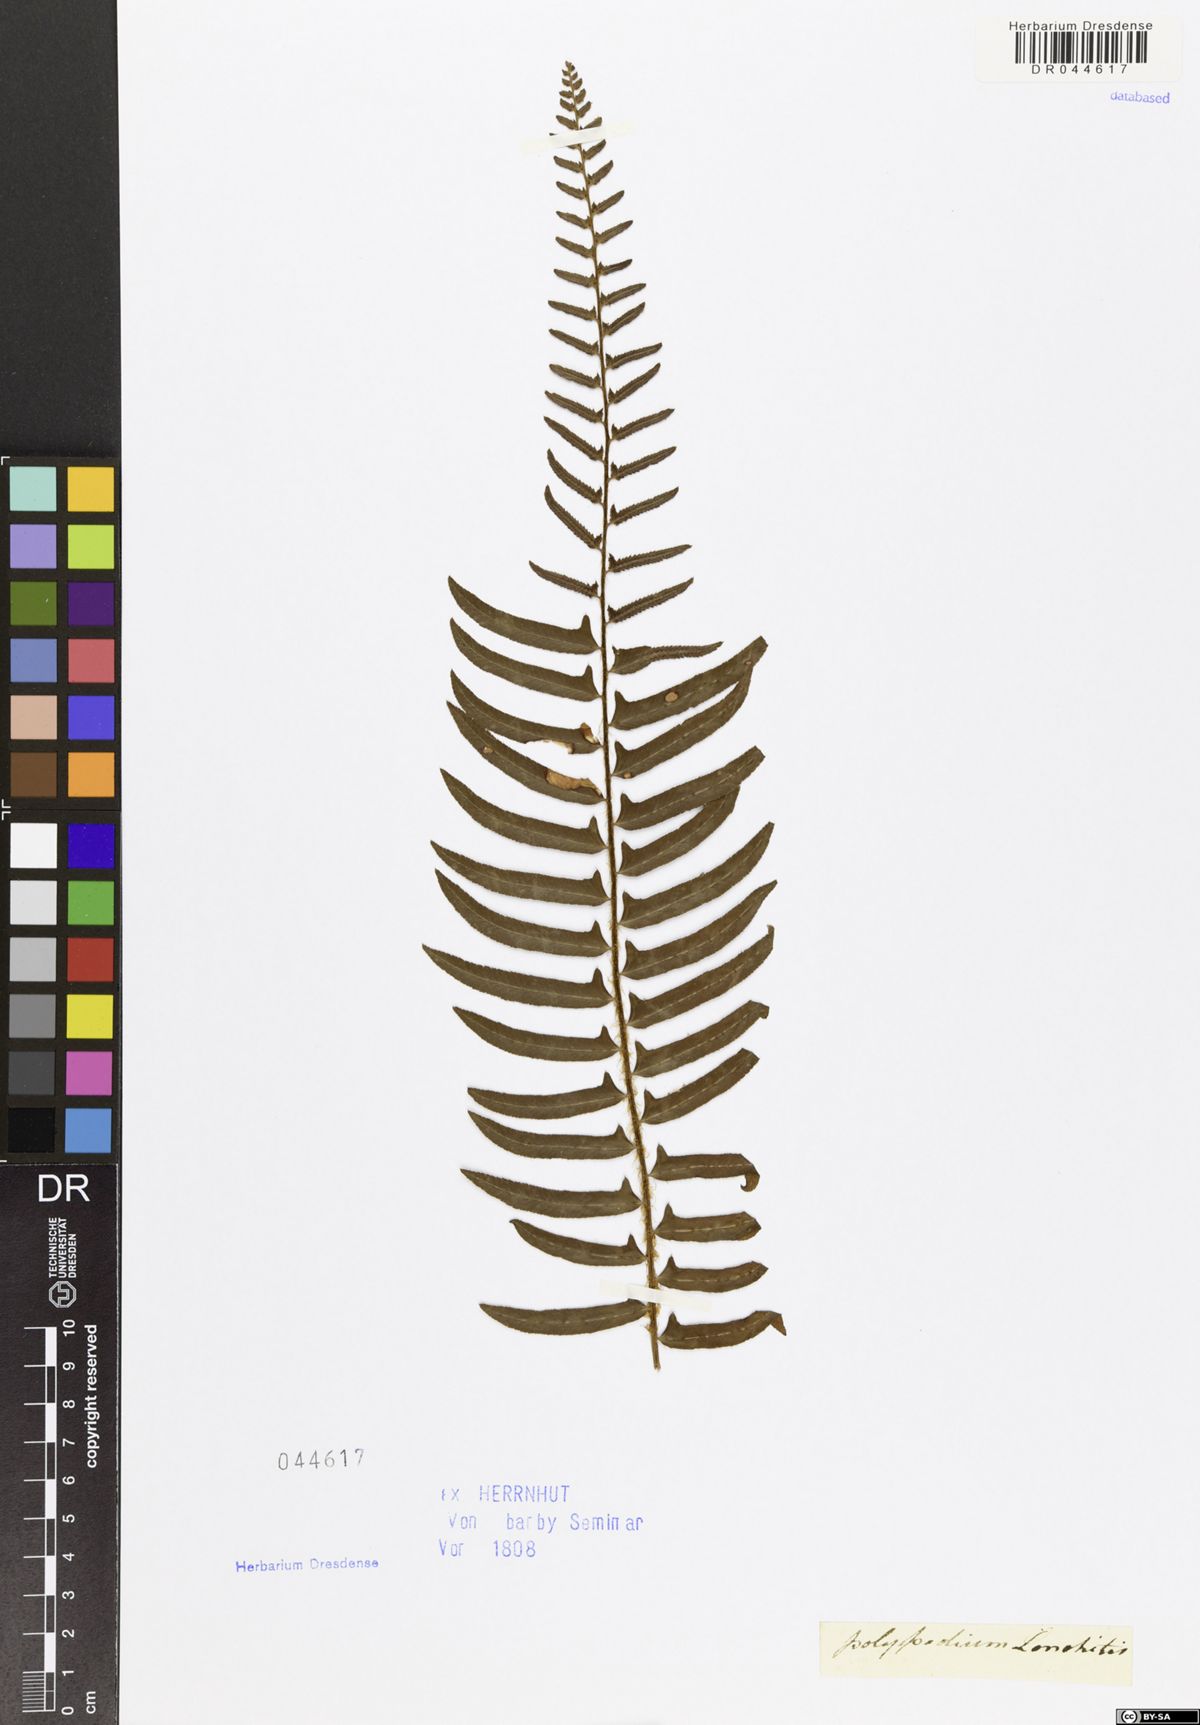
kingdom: Plantae
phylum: Tracheophyta
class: Polypodiopsida
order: Polypodiales
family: Dryopteridaceae
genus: Polystichum
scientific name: Polystichum acrostichoides
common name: Christmas fern
